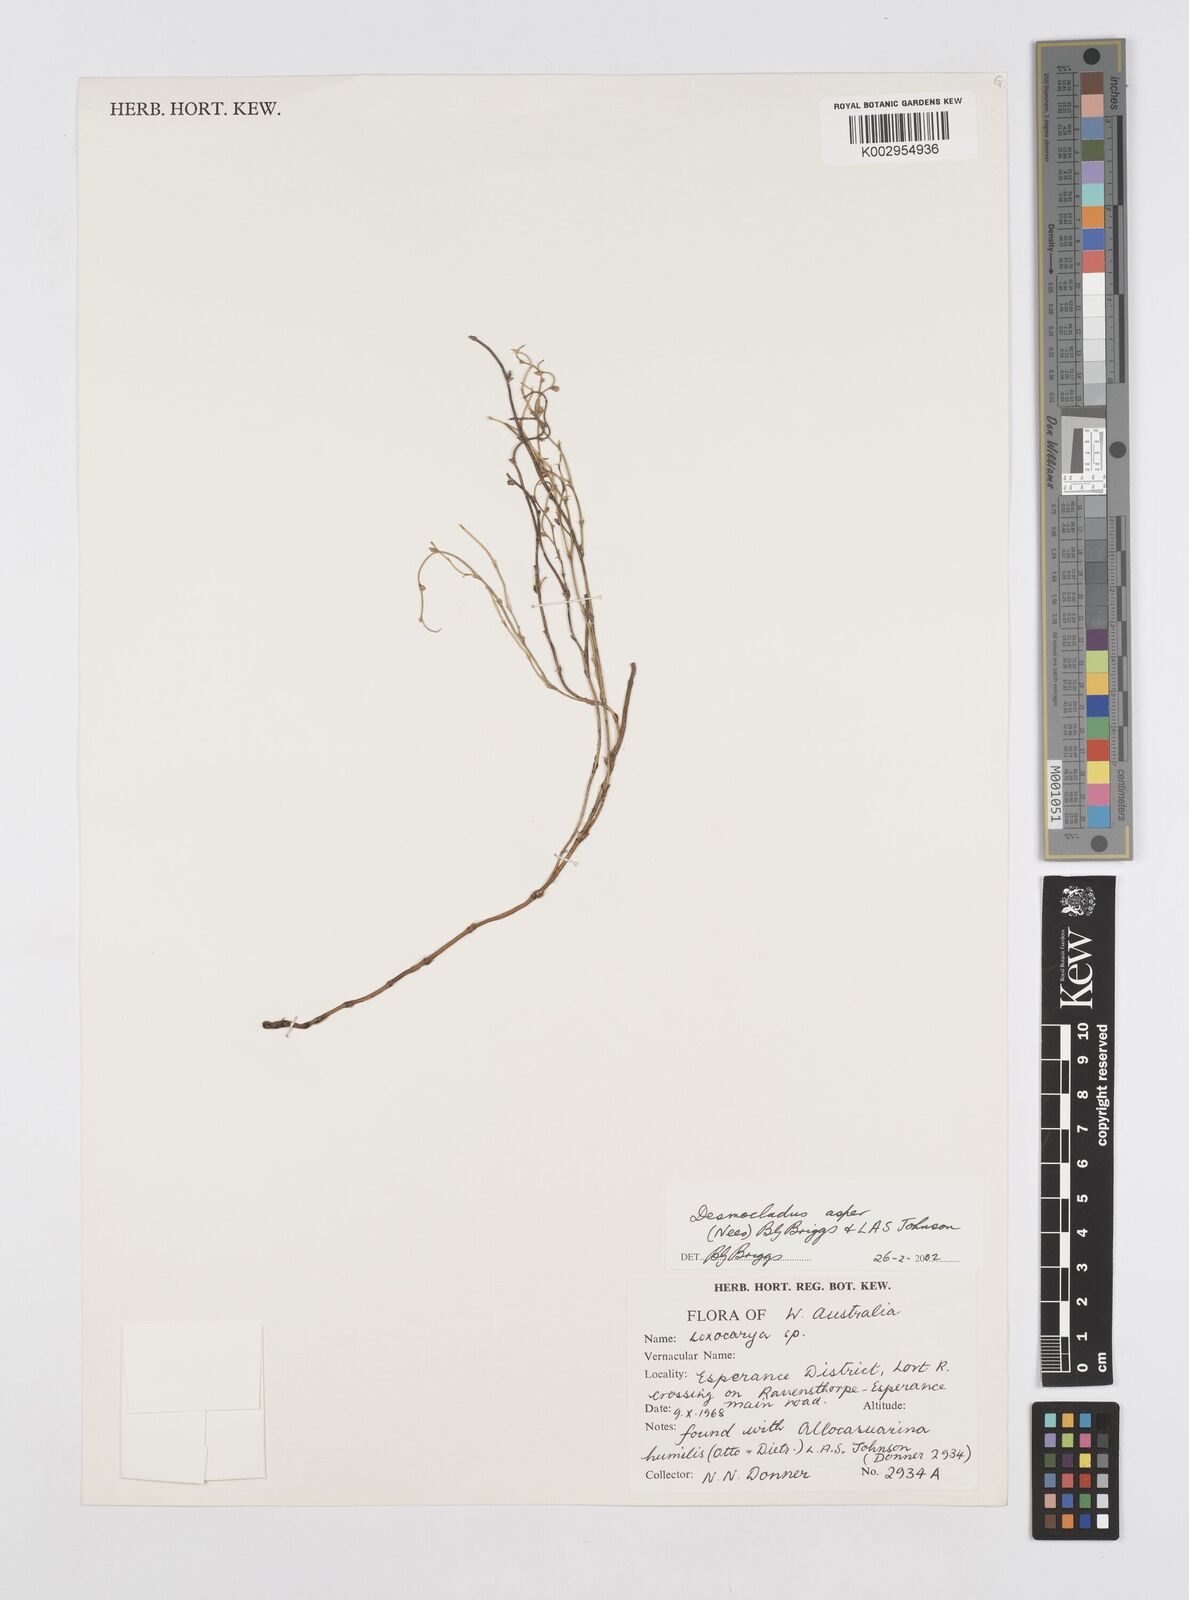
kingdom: Plantae
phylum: Tracheophyta
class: Liliopsida
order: Poales
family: Restionaceae
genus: Desmocladus
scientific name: Desmocladus asper
